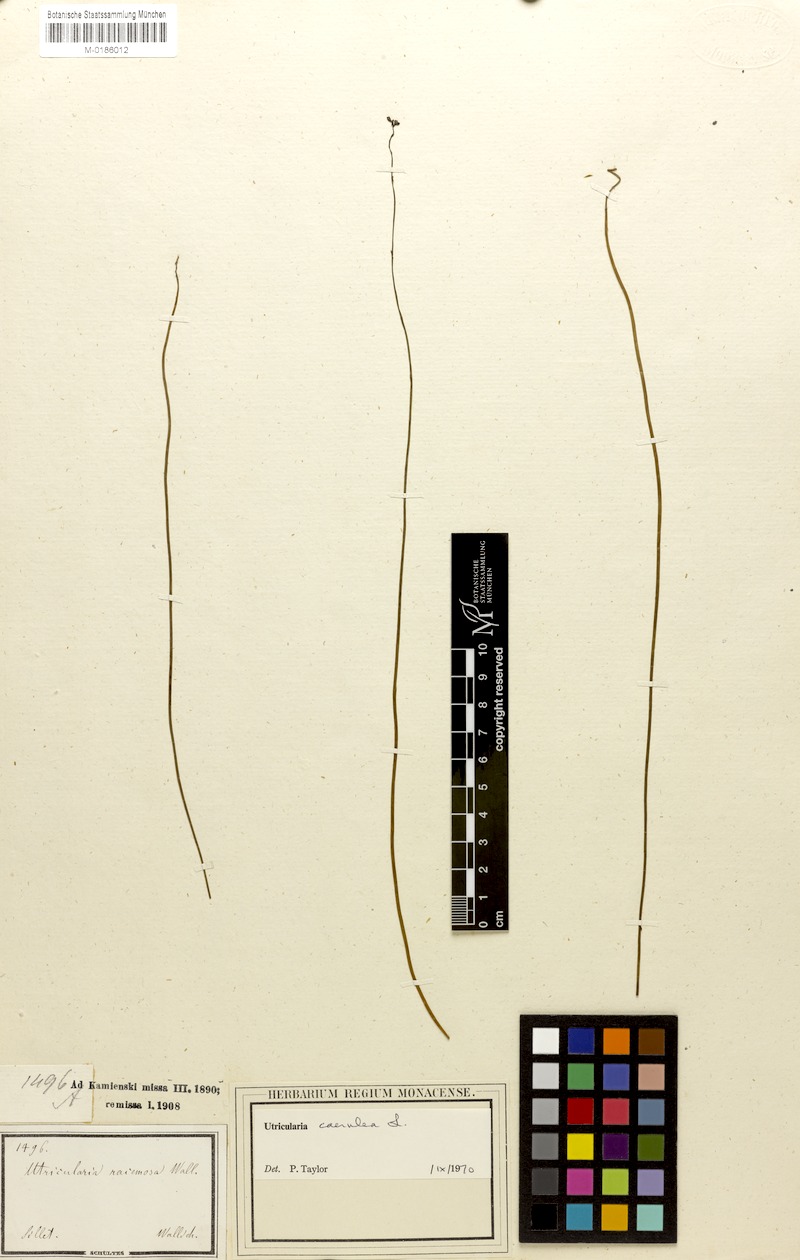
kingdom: Plantae
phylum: Tracheophyta
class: Magnoliopsida
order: Lamiales
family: Lentibulariaceae
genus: Utricularia
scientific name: Utricularia caerulea
